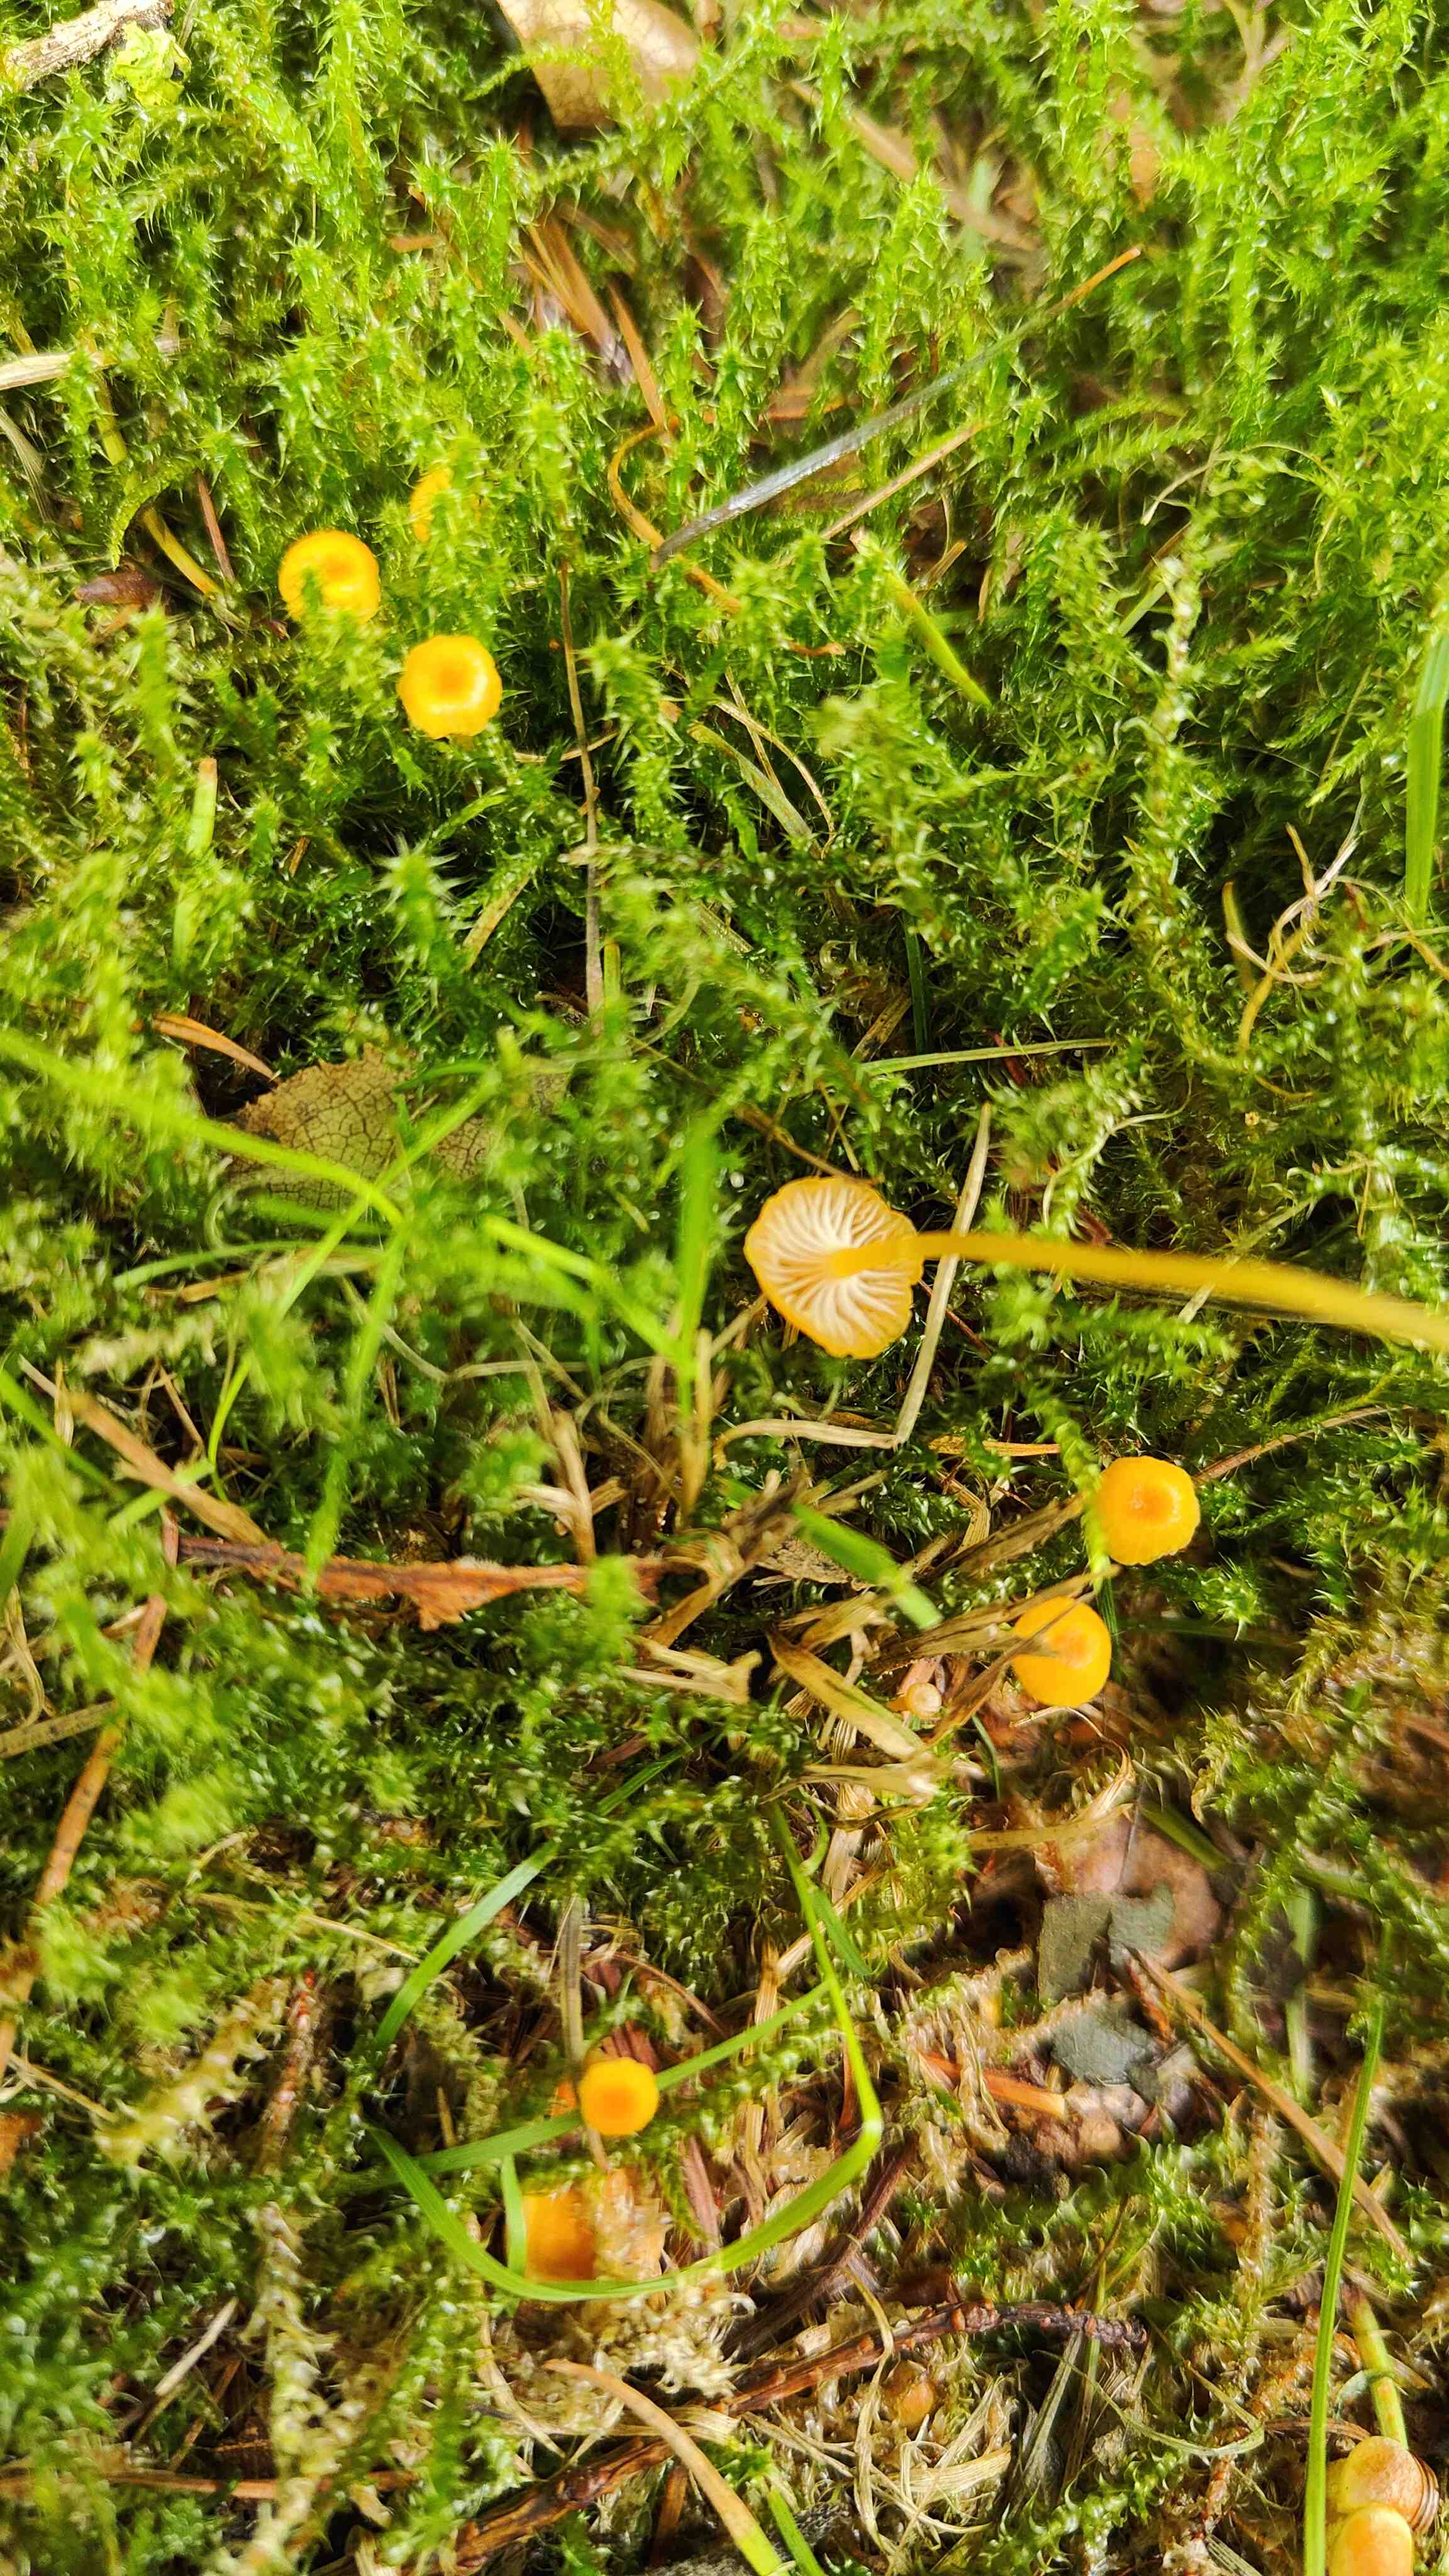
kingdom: Fungi
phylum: Basidiomycota
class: Agaricomycetes
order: Hymenochaetales
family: Rickenellaceae
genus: Rickenella
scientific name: Rickenella fibula
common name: orange mosnavlehat
